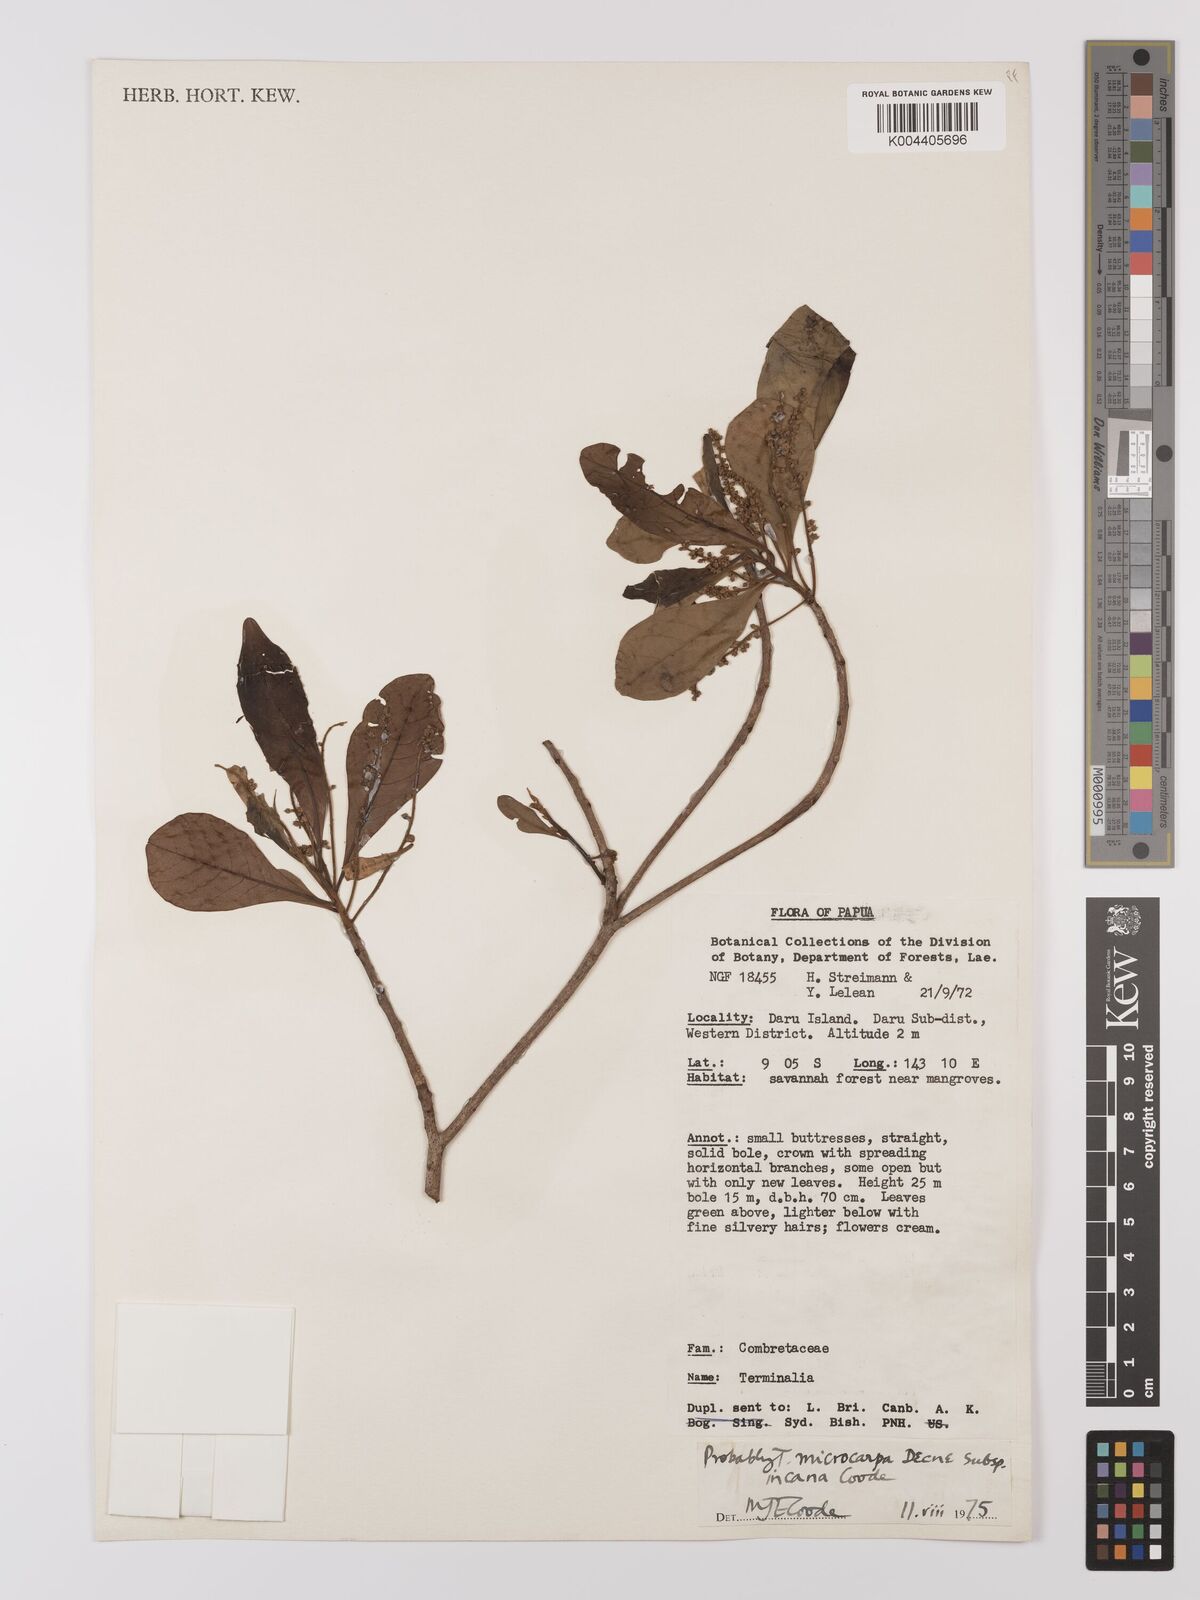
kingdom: Plantae
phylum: Tracheophyta
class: Magnoliopsida
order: Myrtales
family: Combretaceae
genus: Terminalia
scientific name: Terminalia microcarpa
